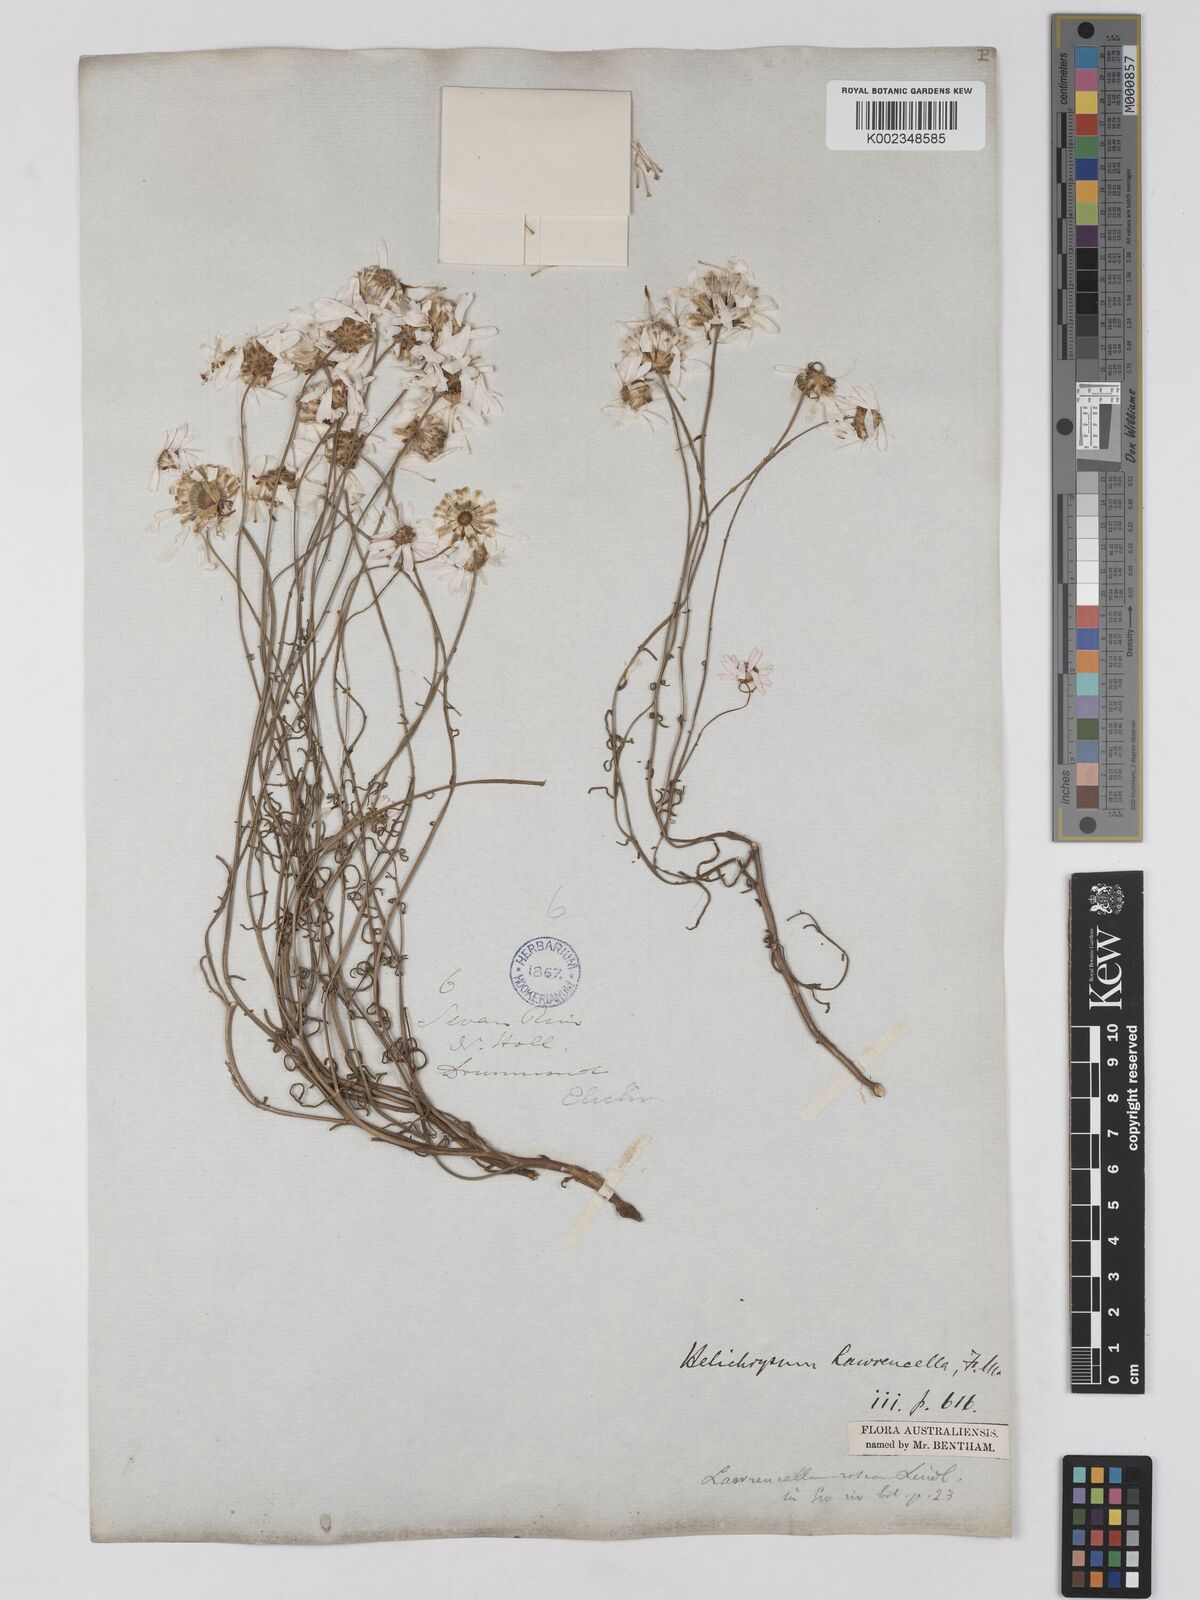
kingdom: Plantae
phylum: Tracheophyta
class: Magnoliopsida
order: Asterales
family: Asteraceae
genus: Lawrencella
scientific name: Lawrencella rosea
